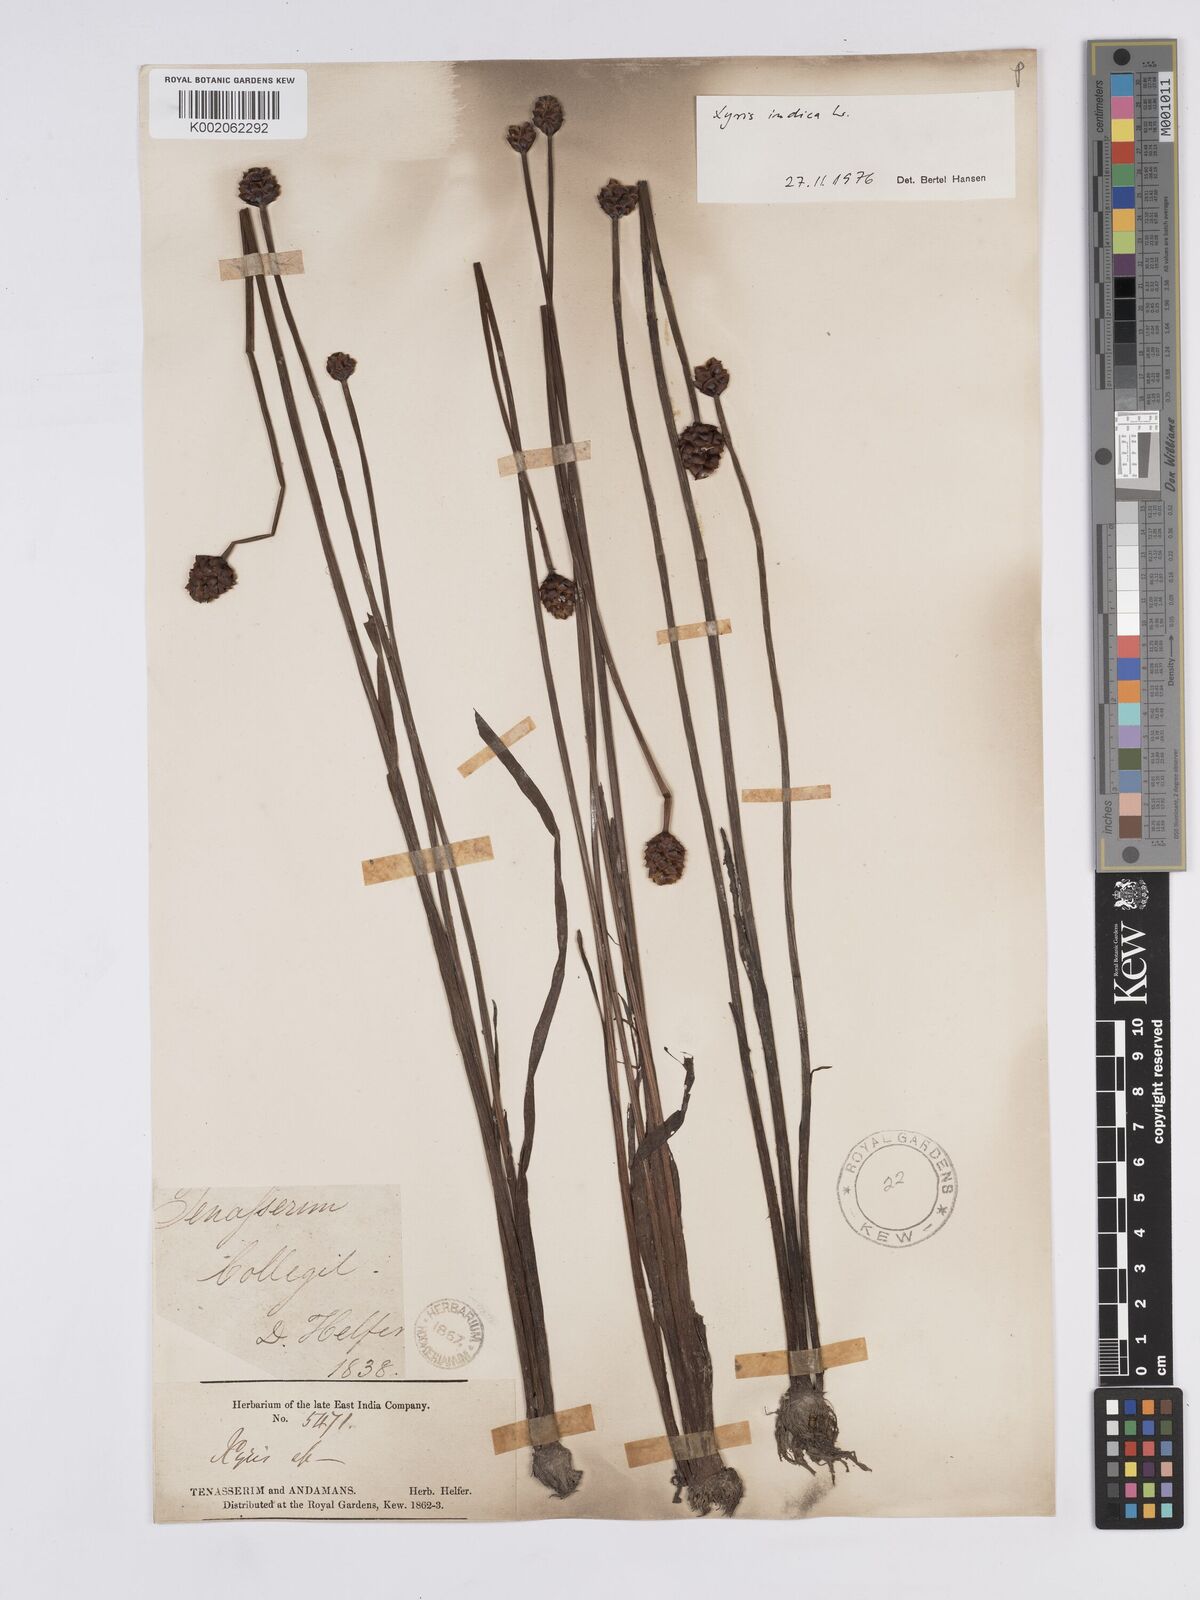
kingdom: Plantae
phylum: Tracheophyta
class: Liliopsida
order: Poales
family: Xyridaceae
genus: Xyris
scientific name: Xyris indica
